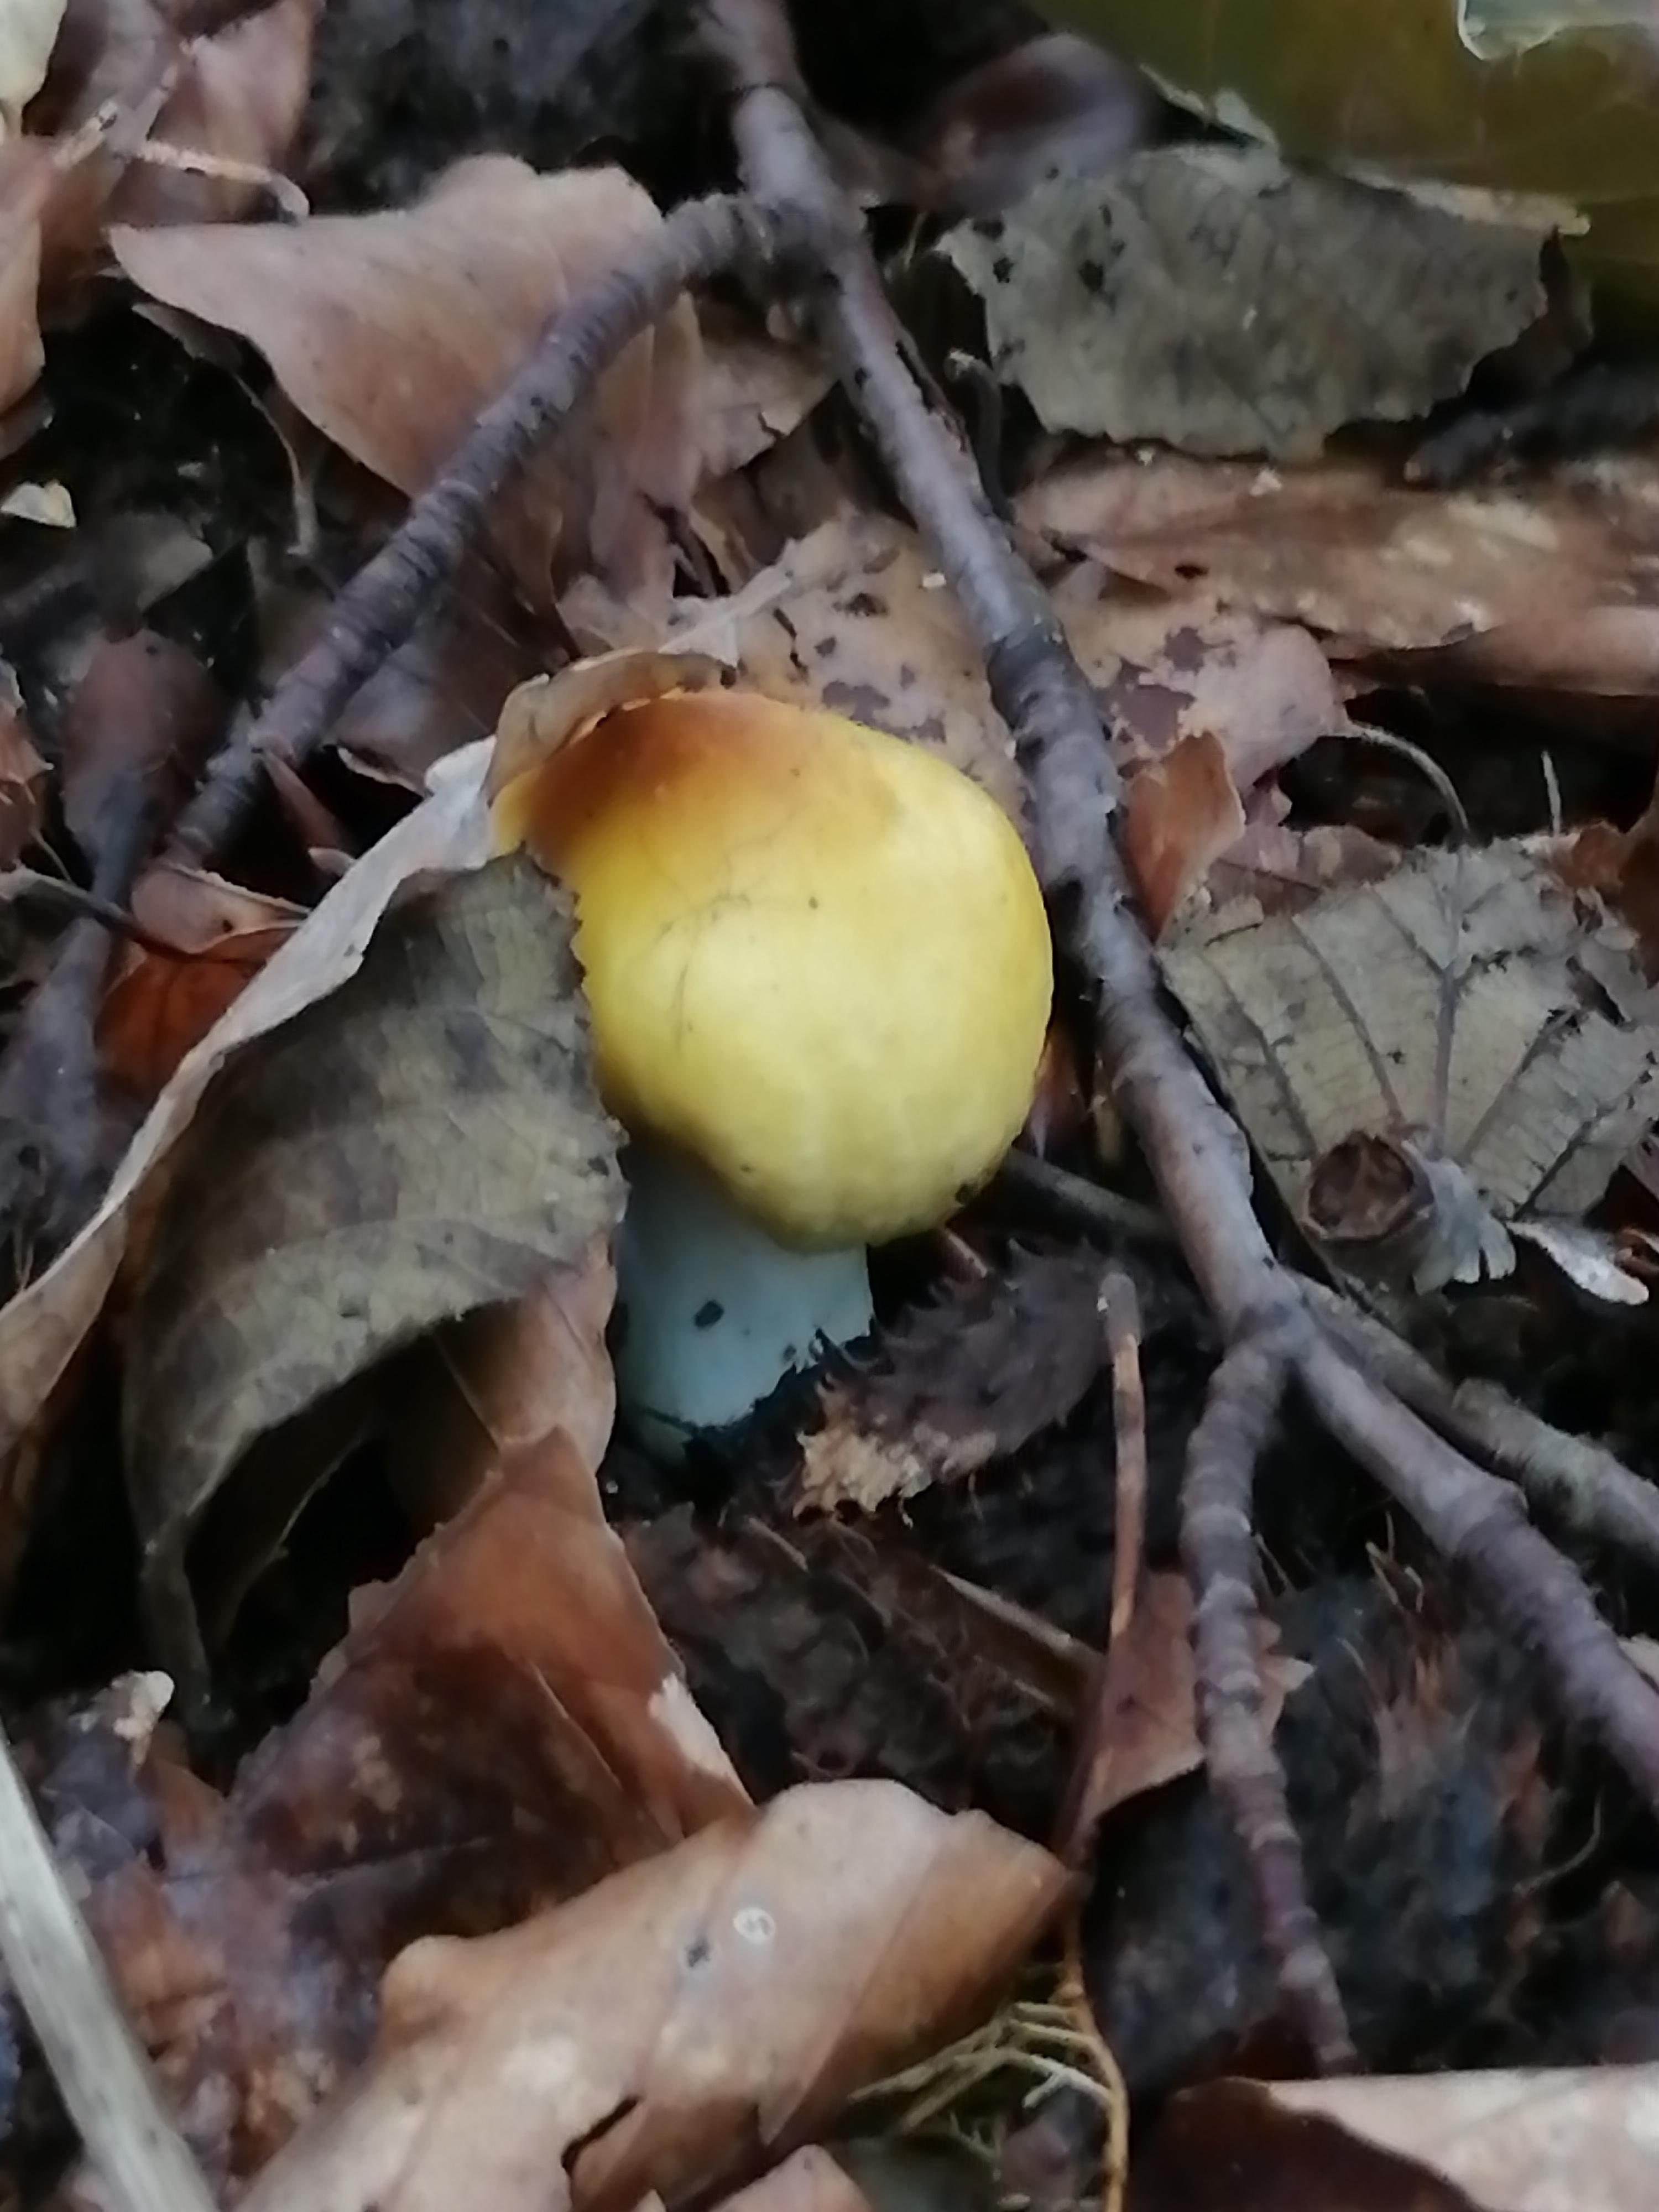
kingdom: Fungi
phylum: Basidiomycota
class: Agaricomycetes
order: Russulales
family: Russulaceae
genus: Russula
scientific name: Russula ochroleuca
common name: okkergul skørhat
